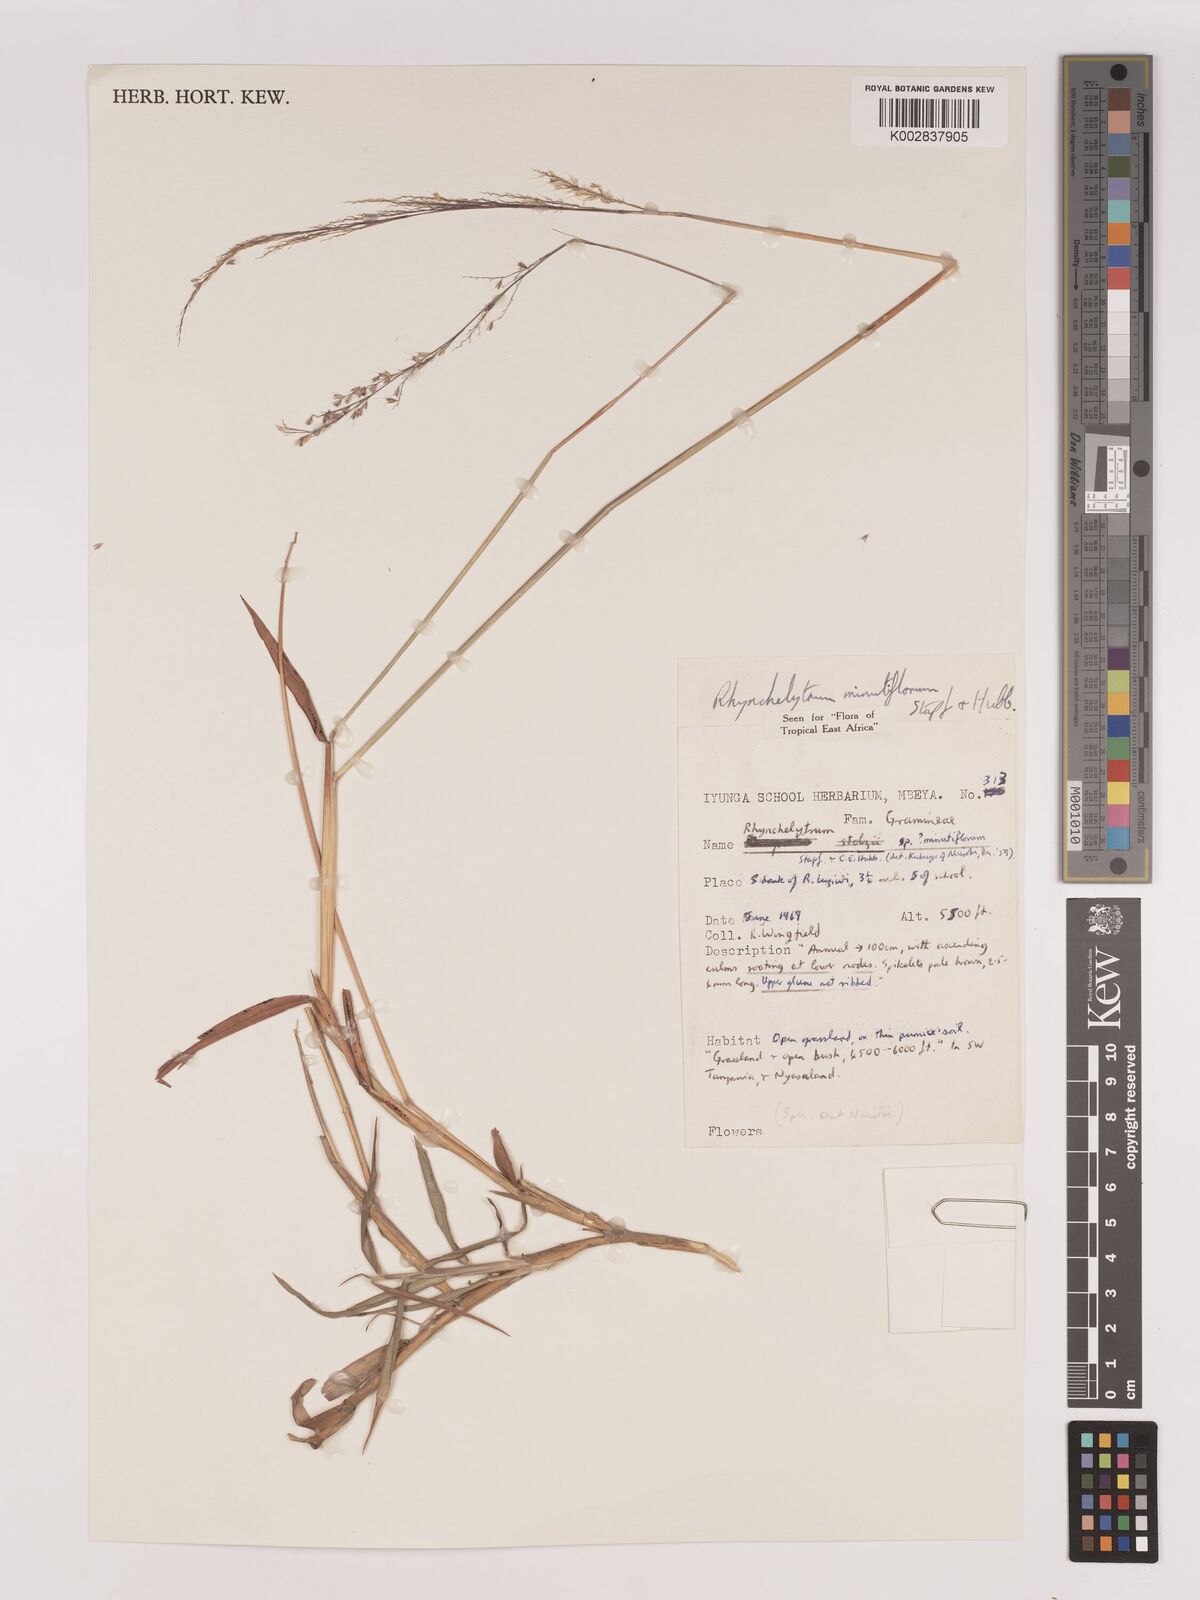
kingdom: Plantae
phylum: Tracheophyta
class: Liliopsida
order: Poales
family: Poaceae
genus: Melinis
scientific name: Melinis longiseta
